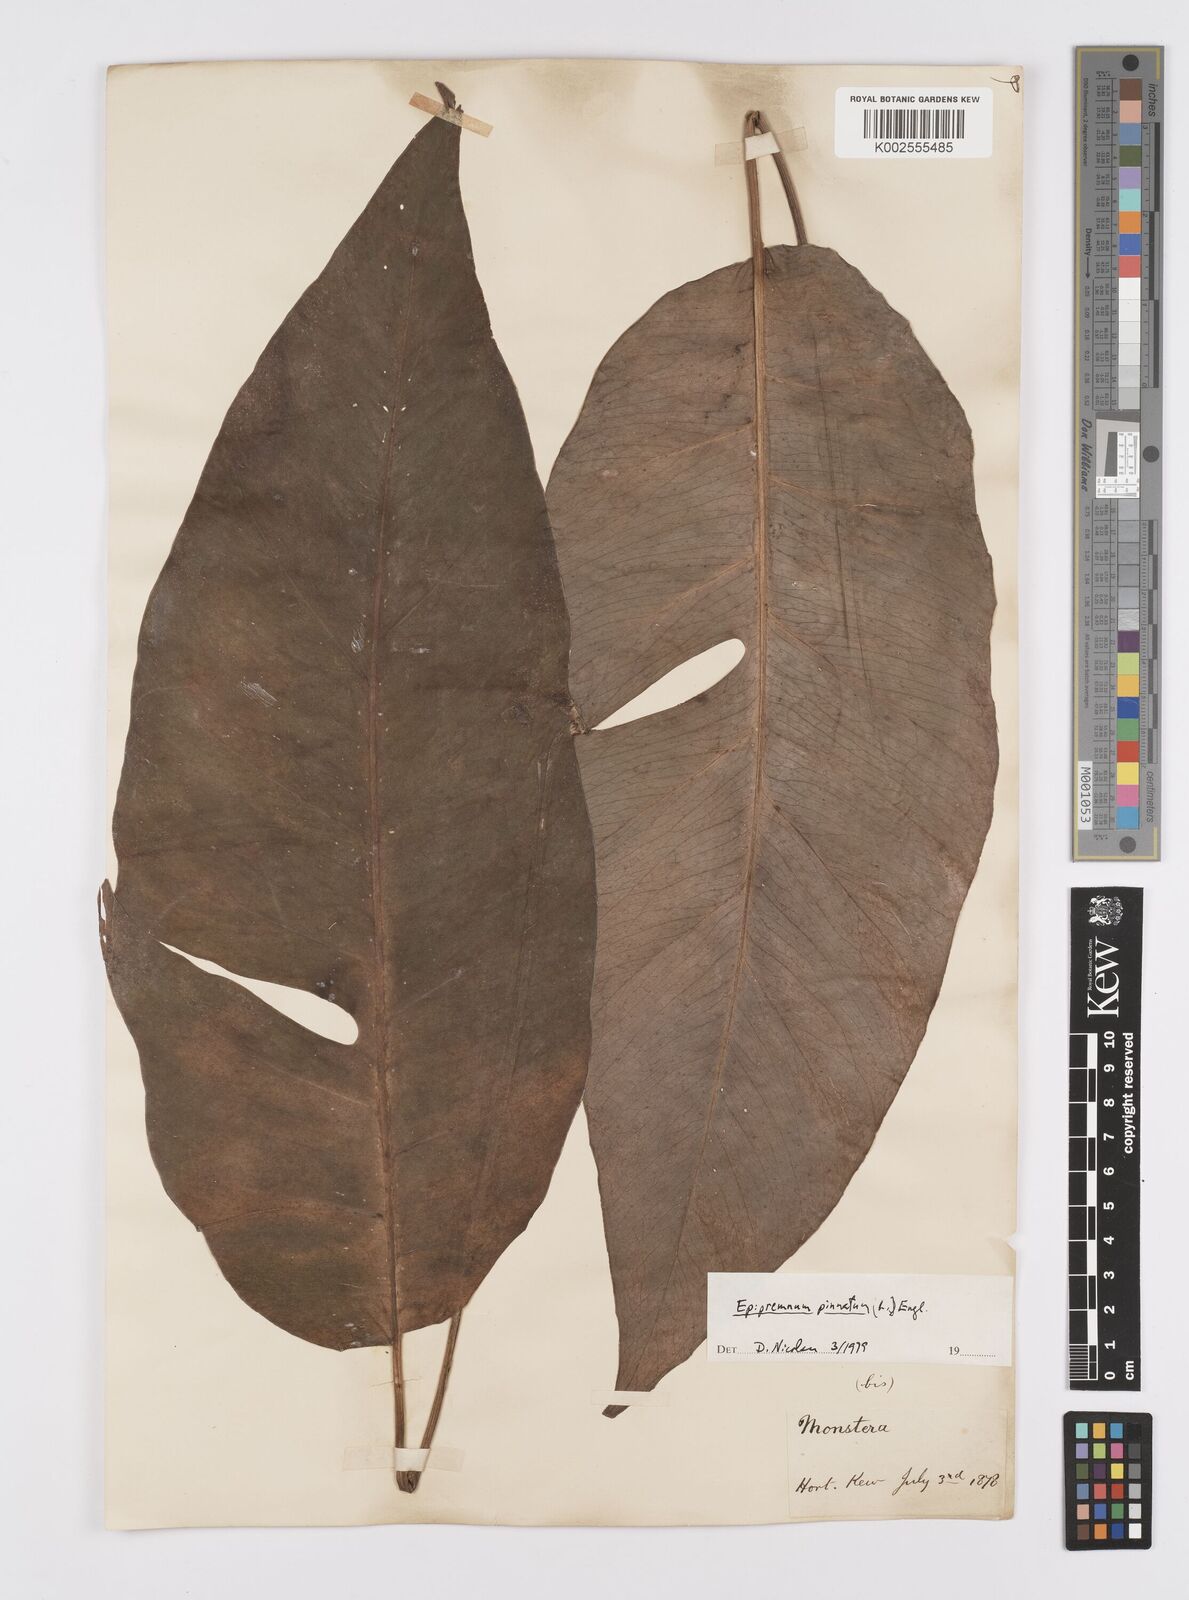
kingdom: Plantae
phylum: Tracheophyta
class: Liliopsida
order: Alismatales
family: Araceae
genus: Epipremnum
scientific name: Epipremnum pinnatum
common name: Centipede tongavine
